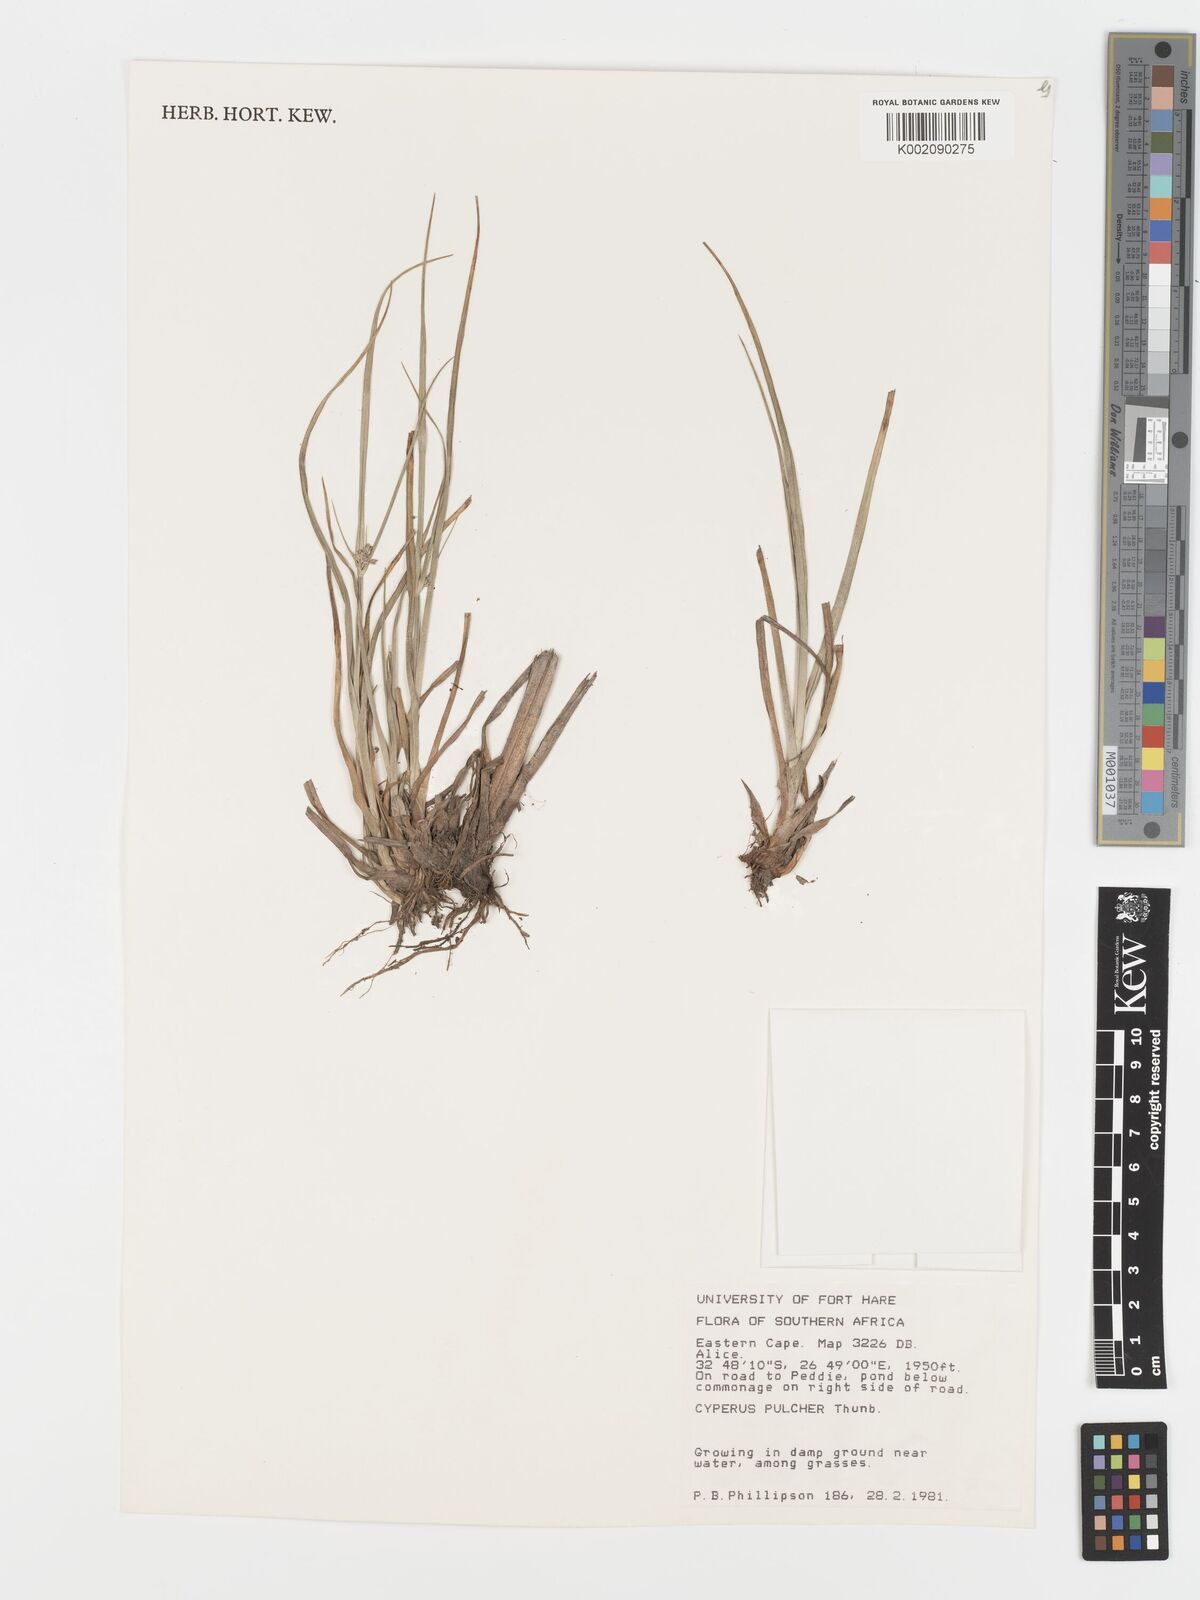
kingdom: Plantae
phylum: Tracheophyta
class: Liliopsida
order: Poales
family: Cyperaceae
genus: Cyperus
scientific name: Cyperus pulcher
